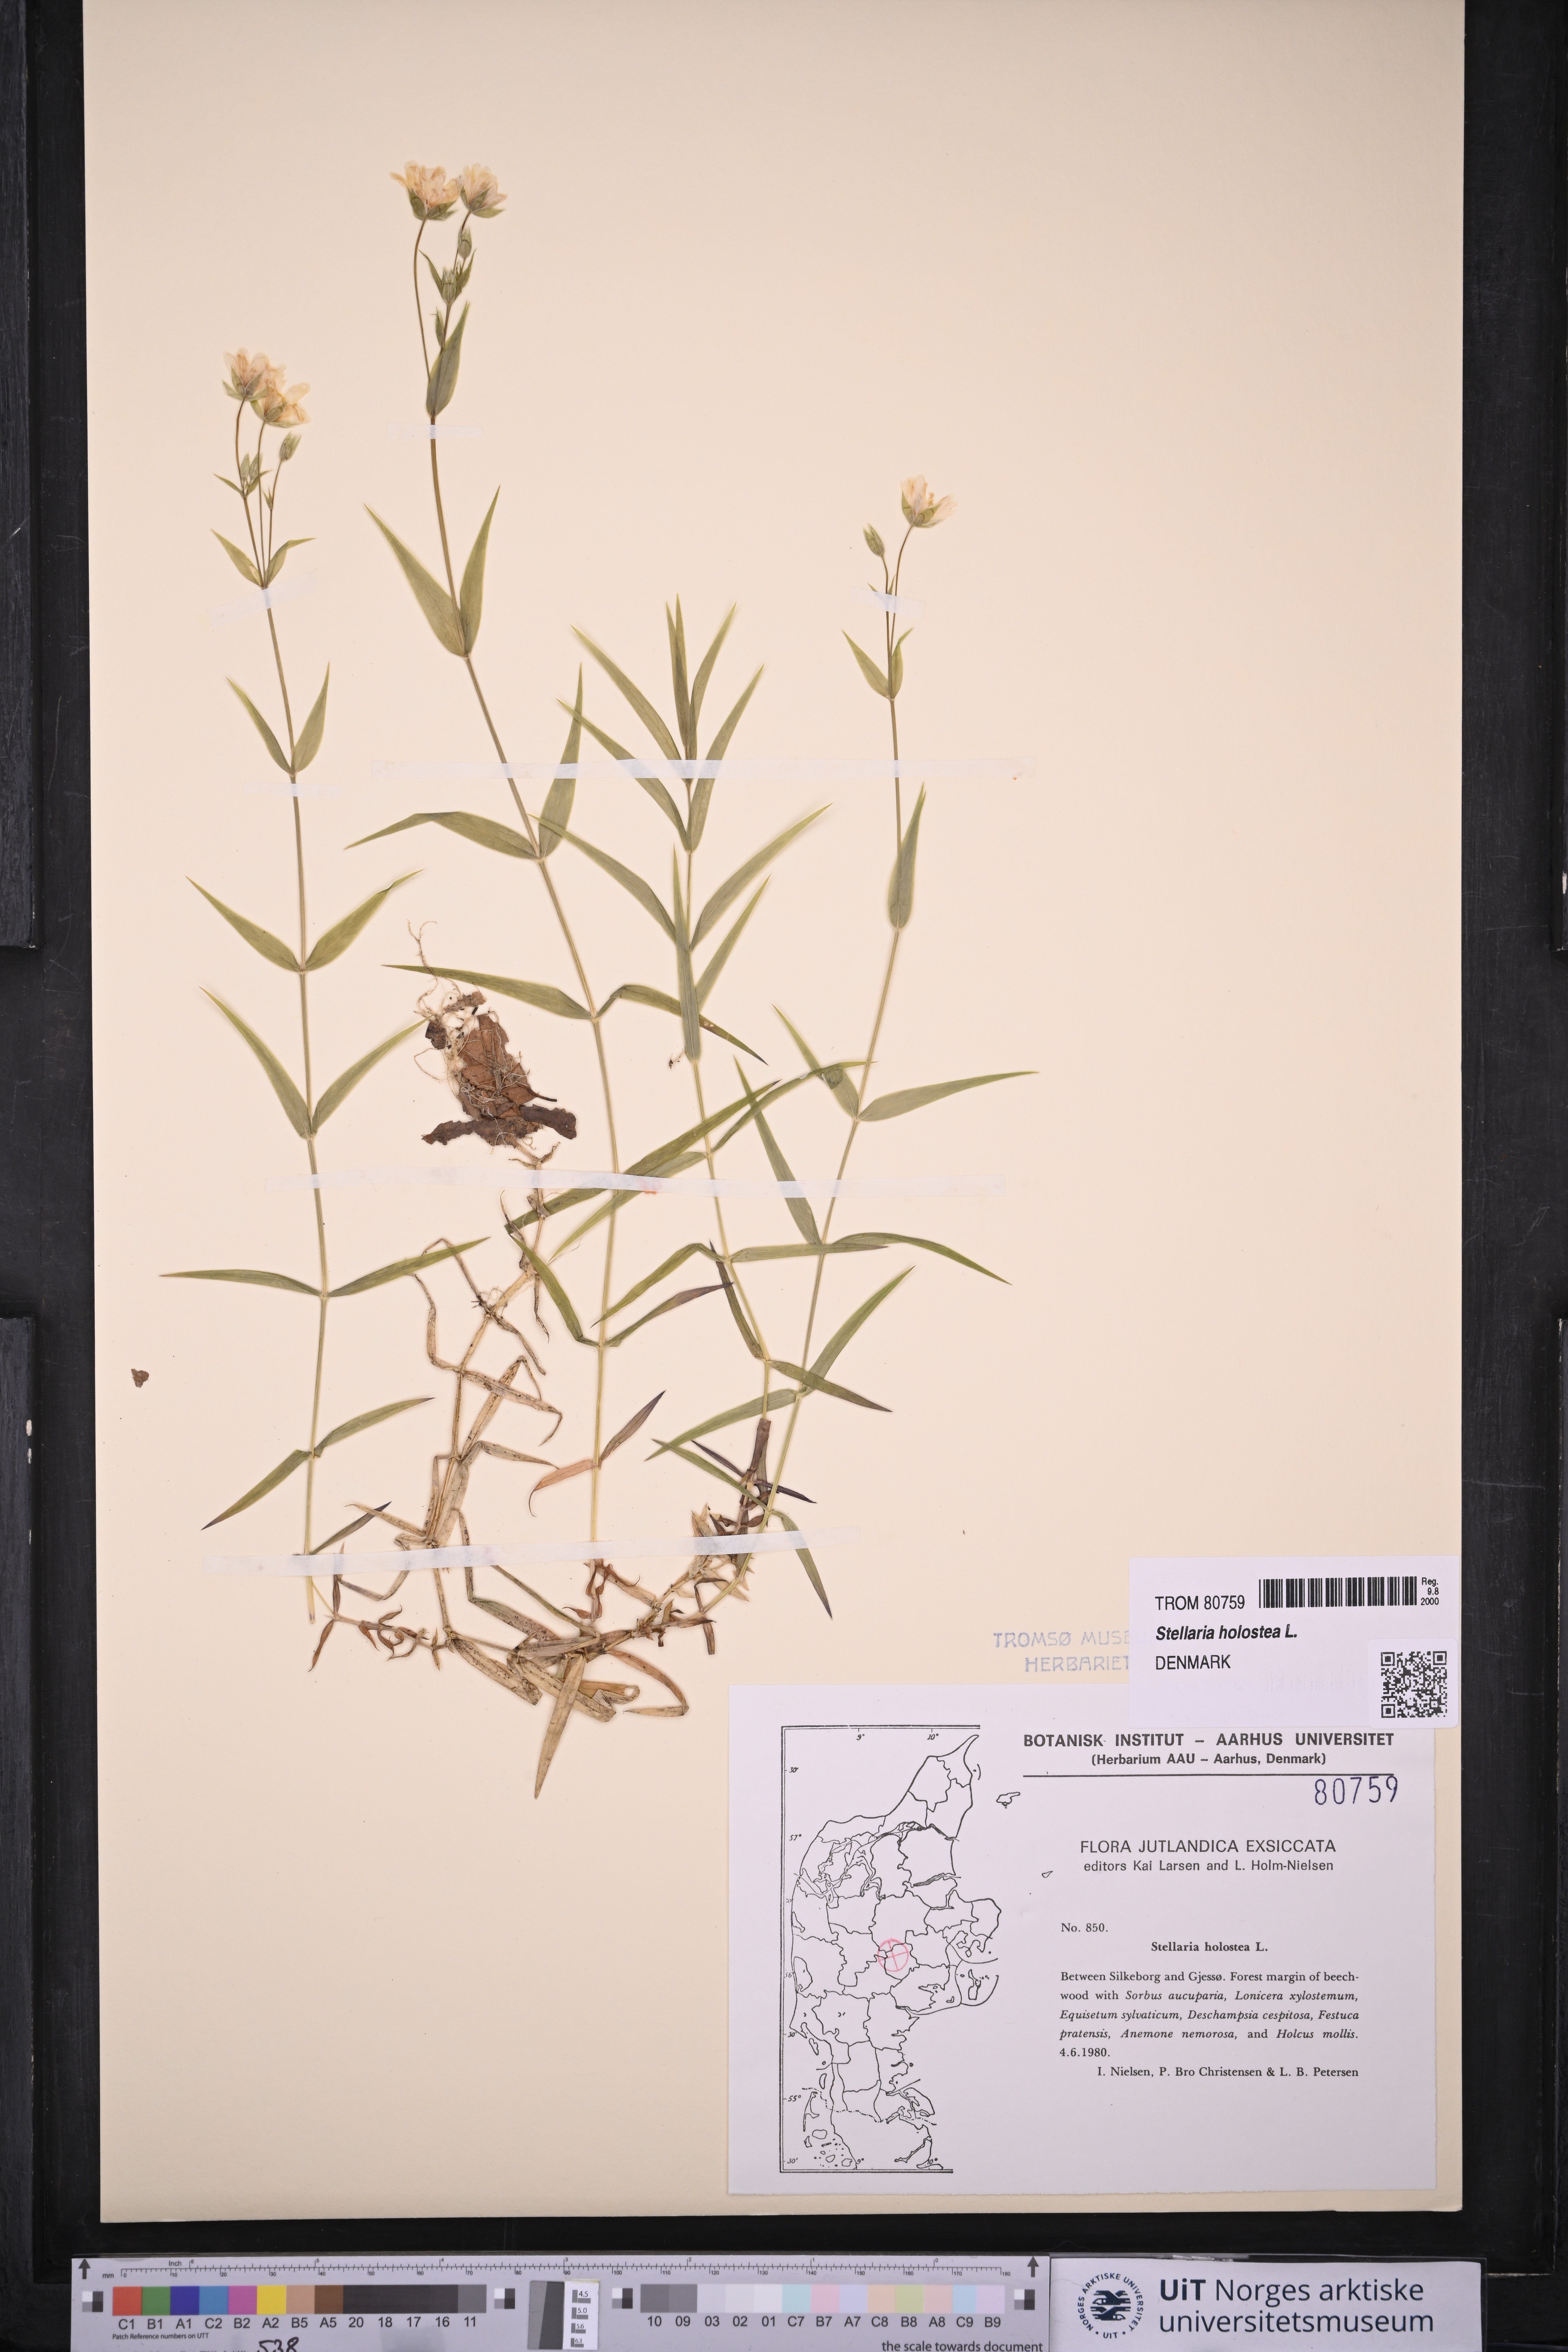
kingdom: Plantae
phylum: Tracheophyta
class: Magnoliopsida
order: Caryophyllales
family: Caryophyllaceae
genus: Rabelera
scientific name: Rabelera holostea
